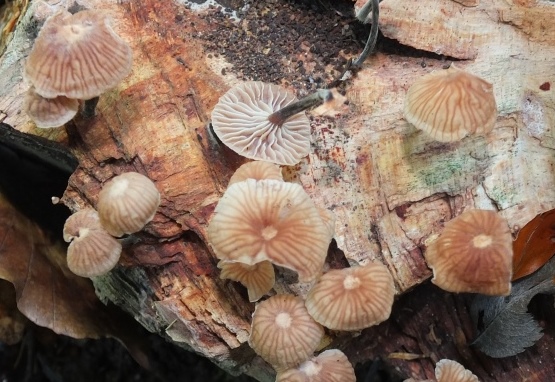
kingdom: Fungi
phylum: Basidiomycota
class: Agaricomycetes
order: Agaricales
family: Omphalotaceae
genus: Gymnopus
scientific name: Gymnopus foetidus
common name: stinkende fladhat
